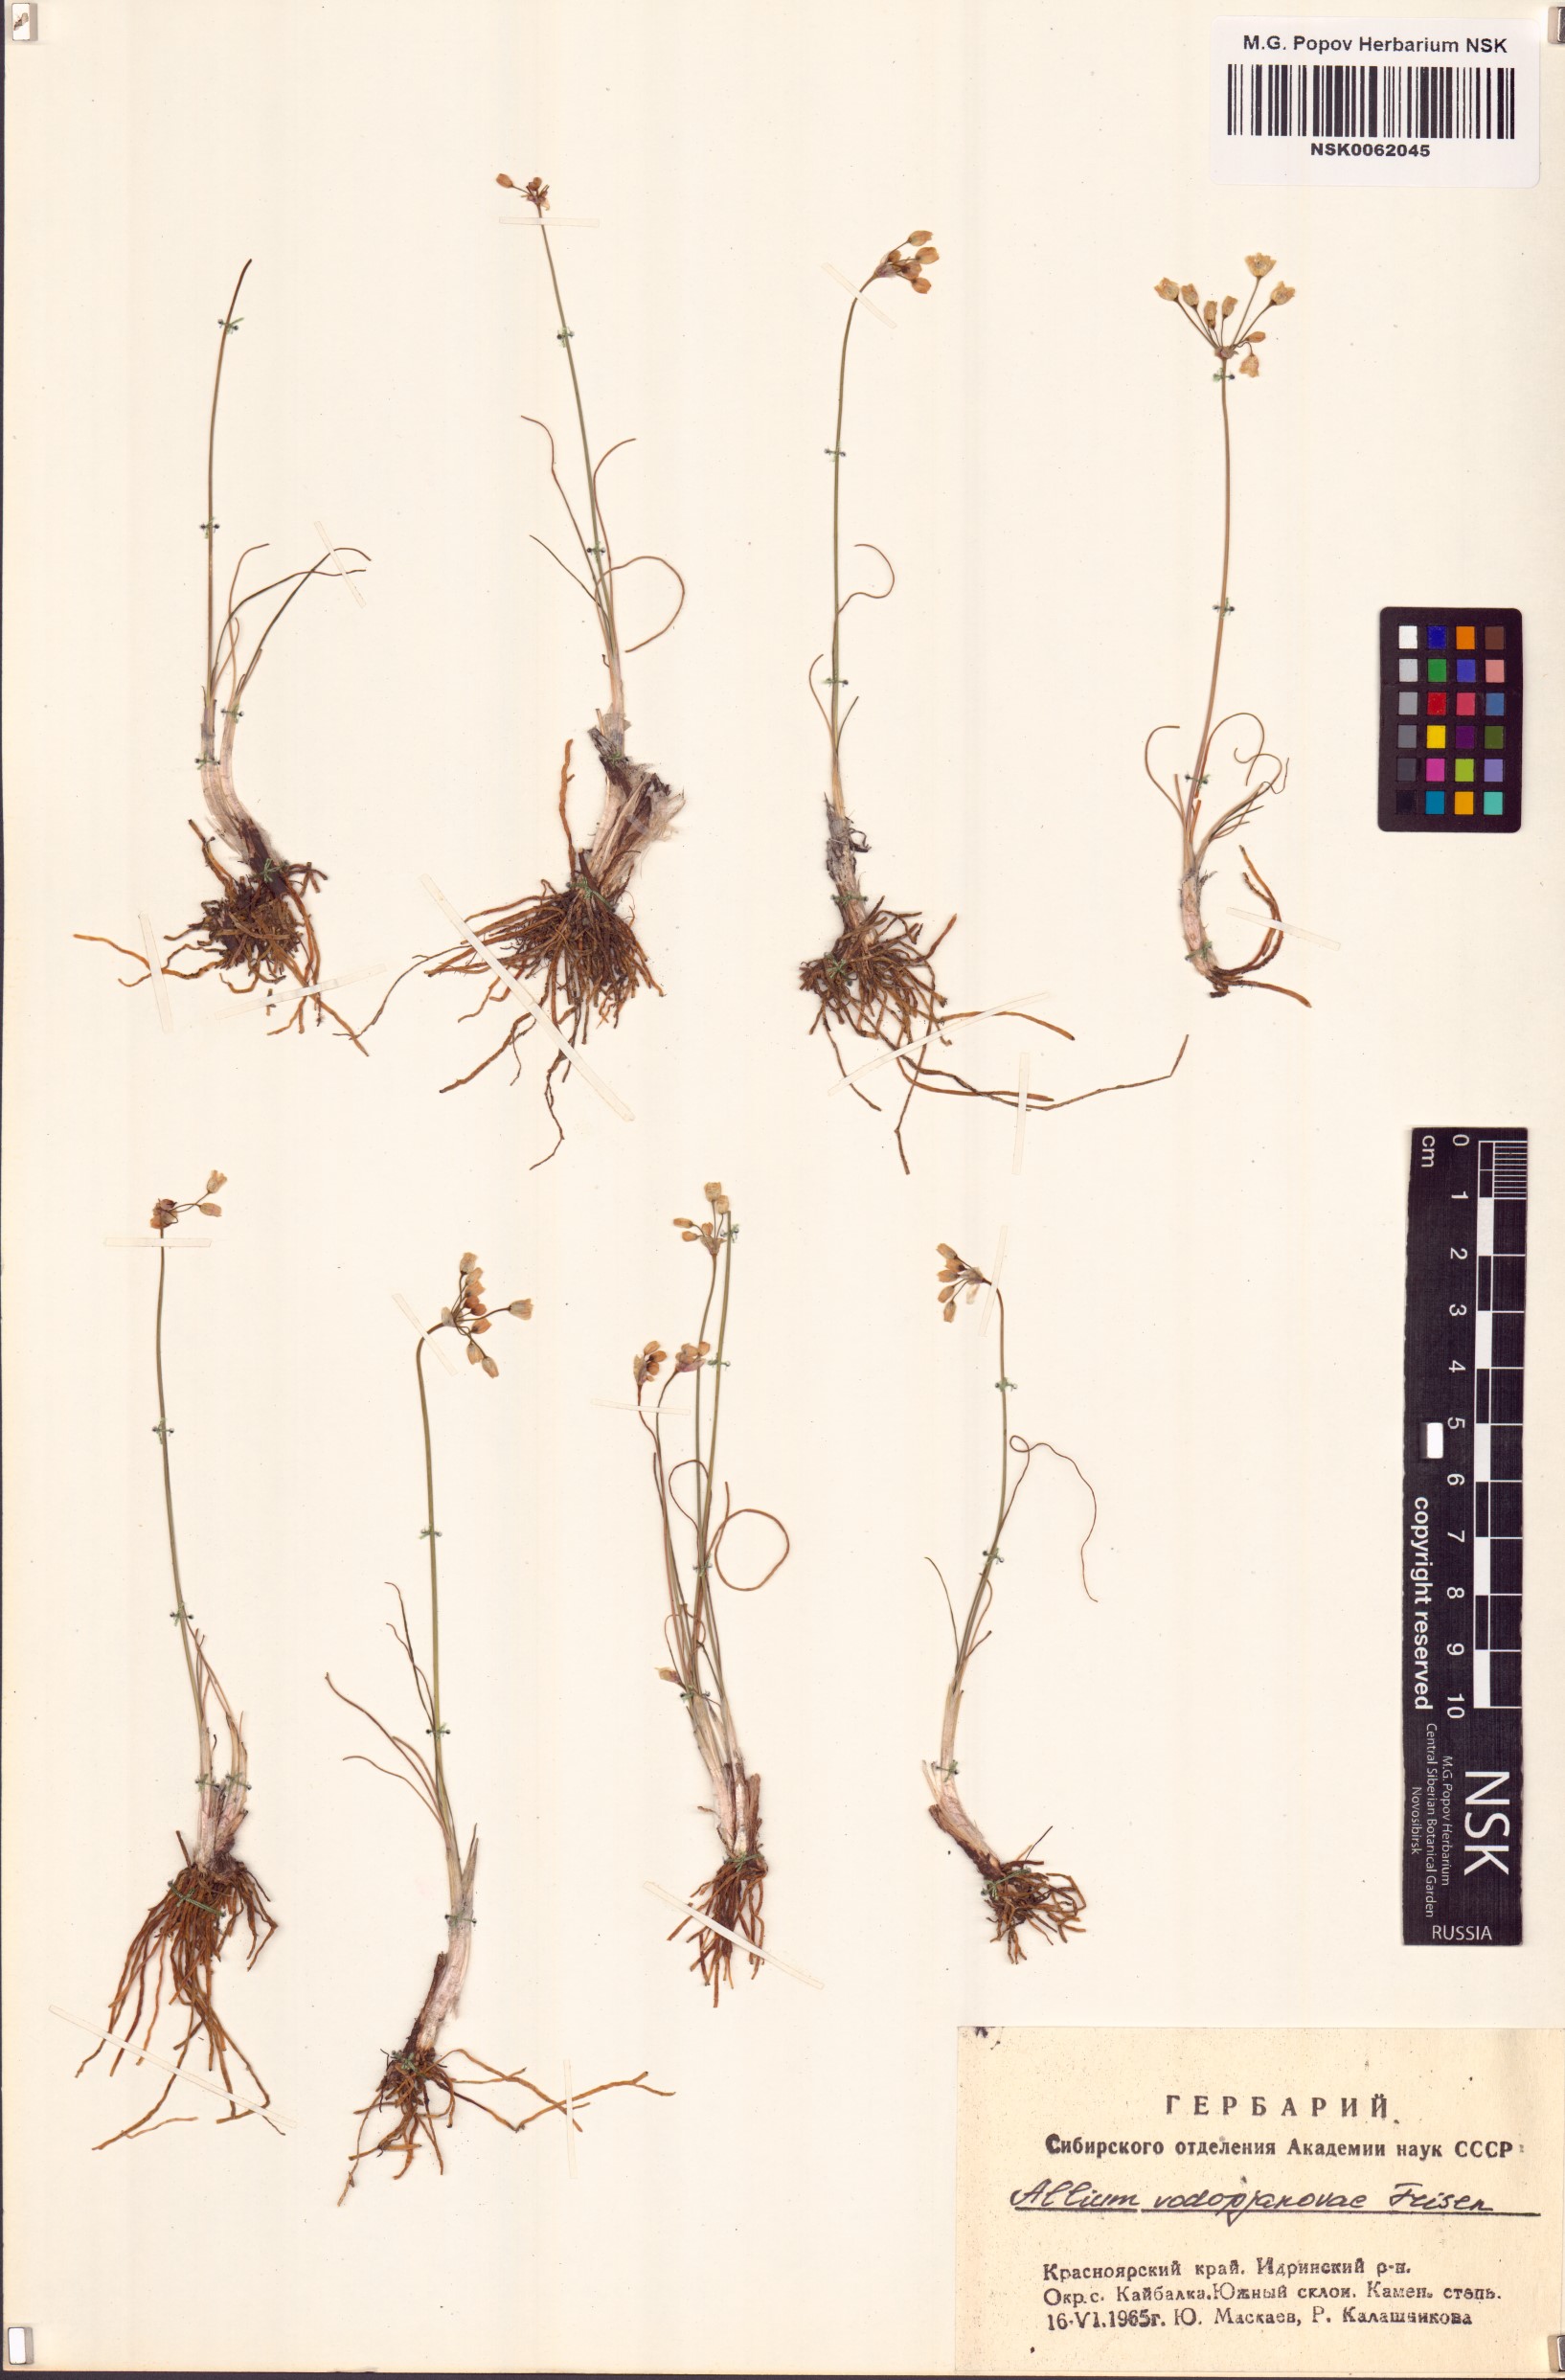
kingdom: Plantae
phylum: Tracheophyta
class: Liliopsida
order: Asparagales
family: Amaryllidaceae
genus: Allium
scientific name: Allium vodopjanovae
